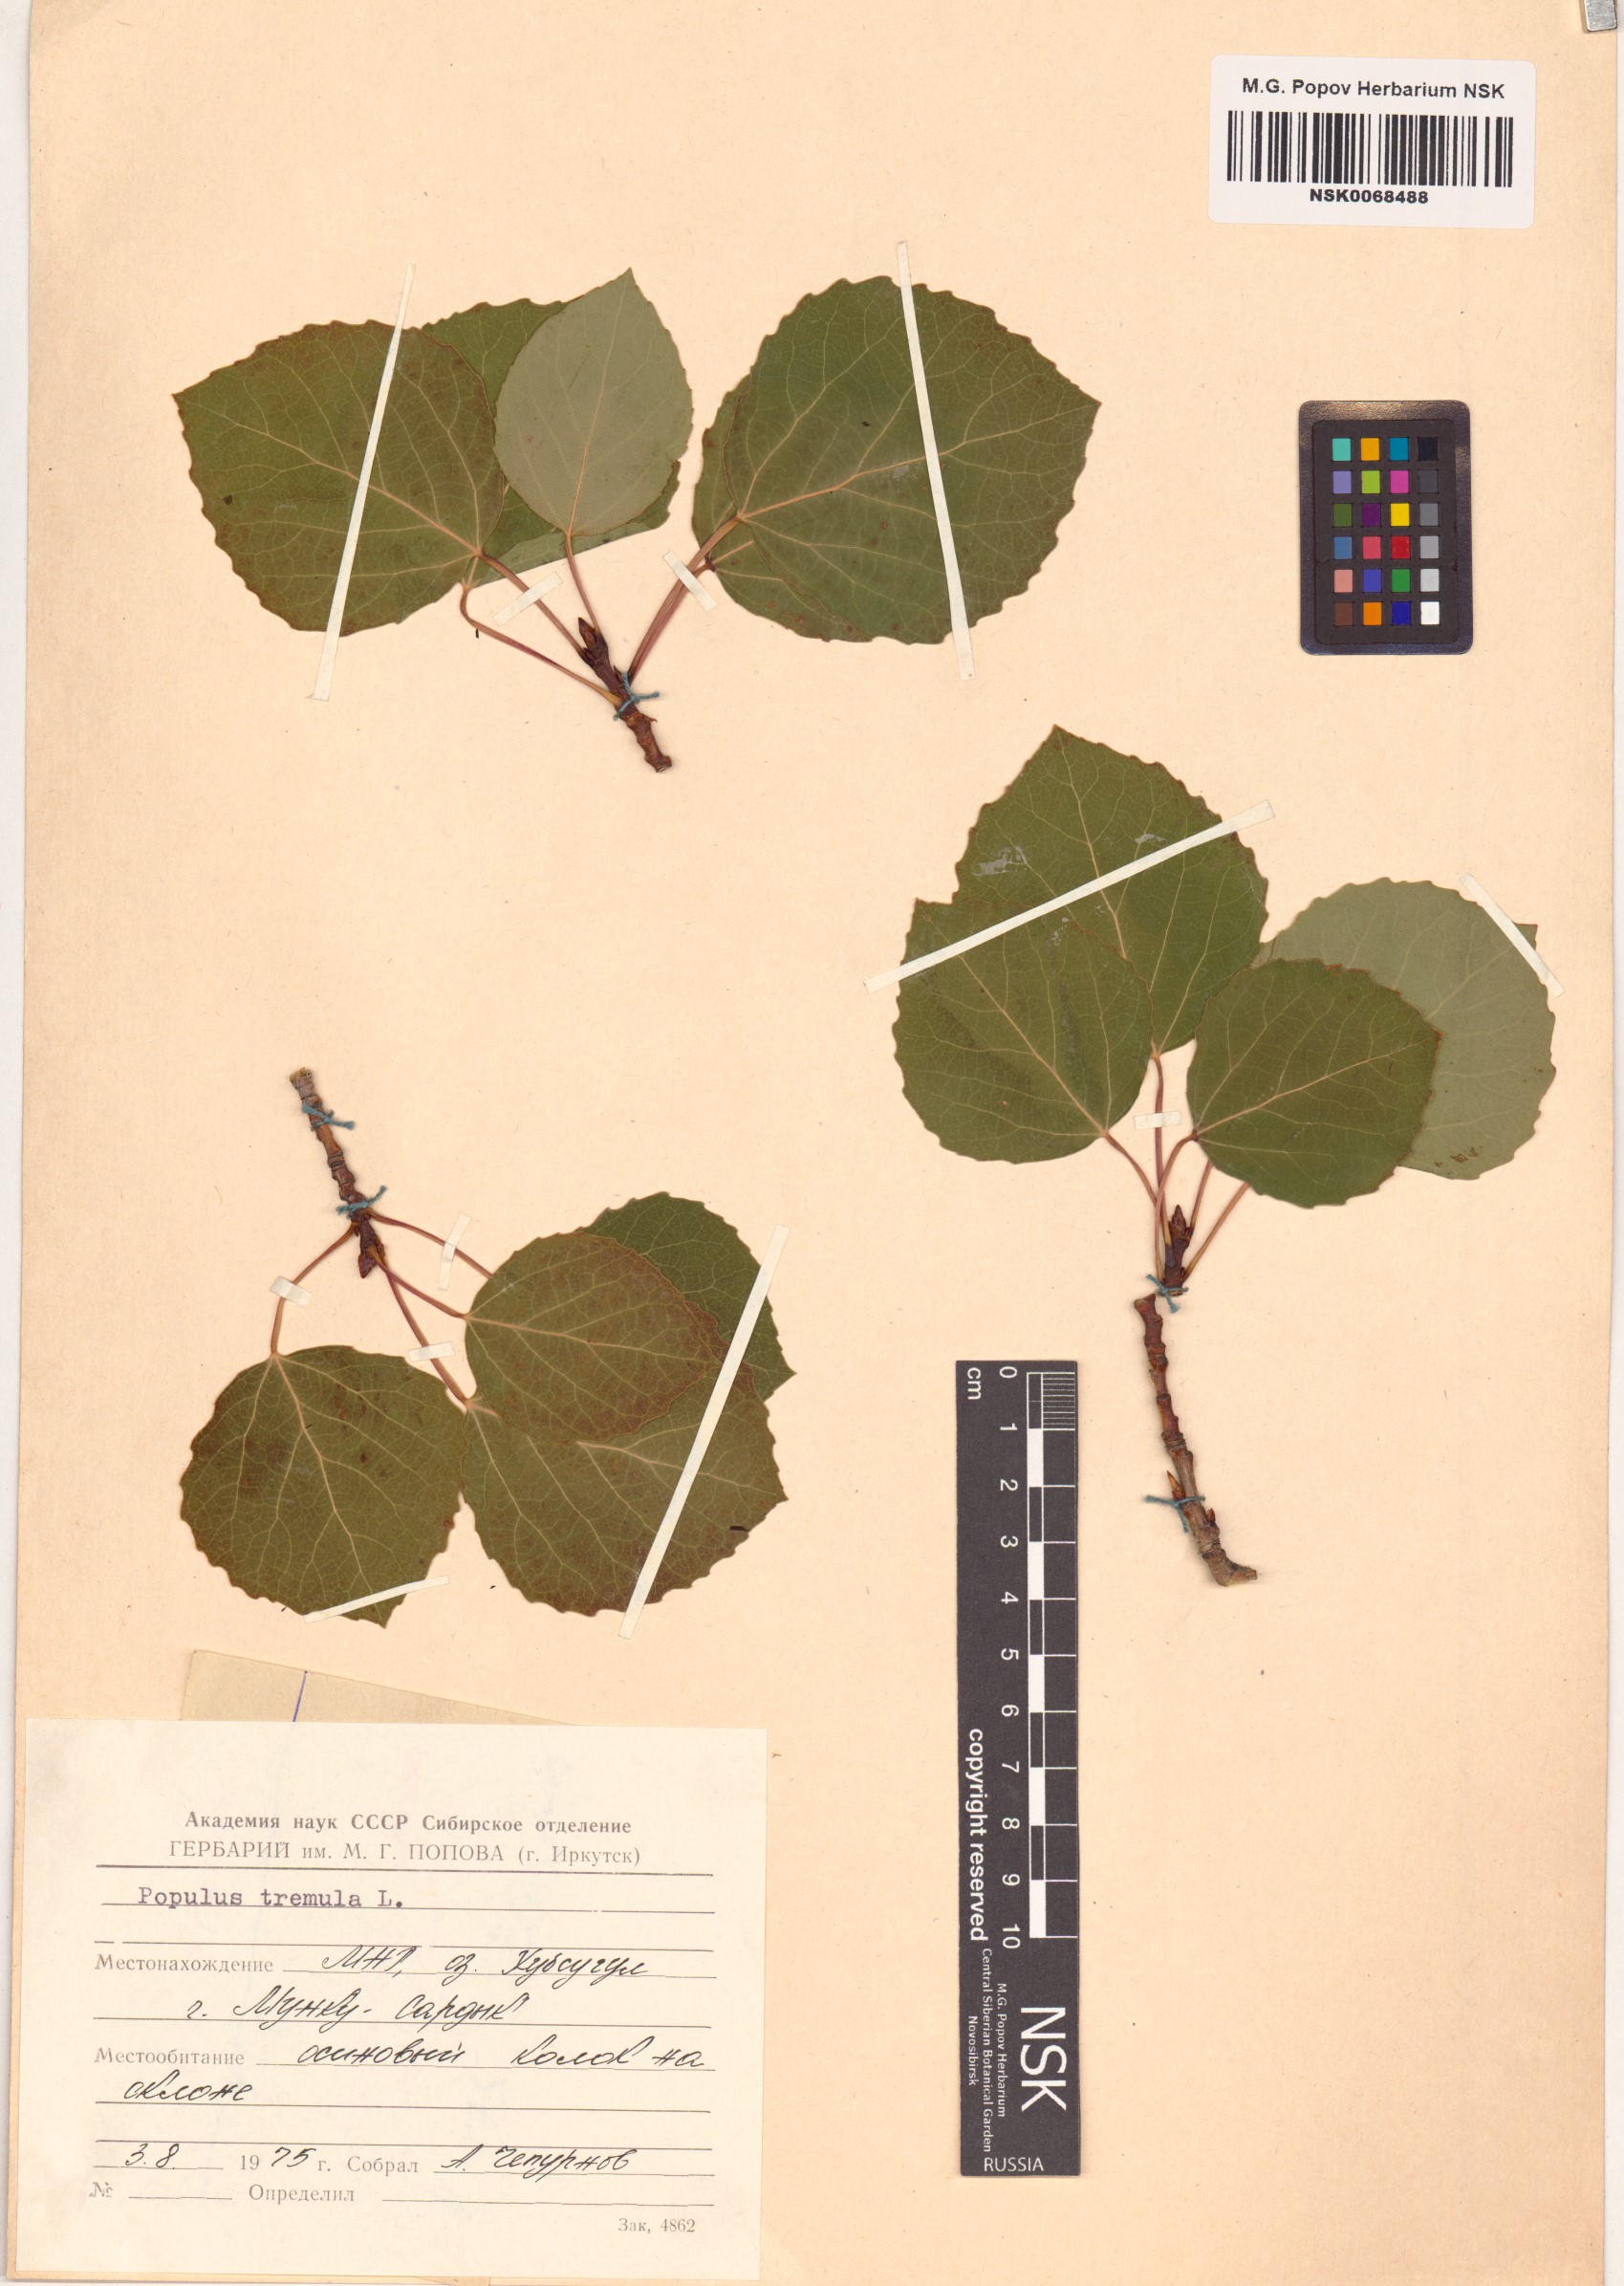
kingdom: Plantae
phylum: Tracheophyta
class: Magnoliopsida
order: Malpighiales
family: Salicaceae
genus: Populus
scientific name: Populus tremula
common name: European aspen
